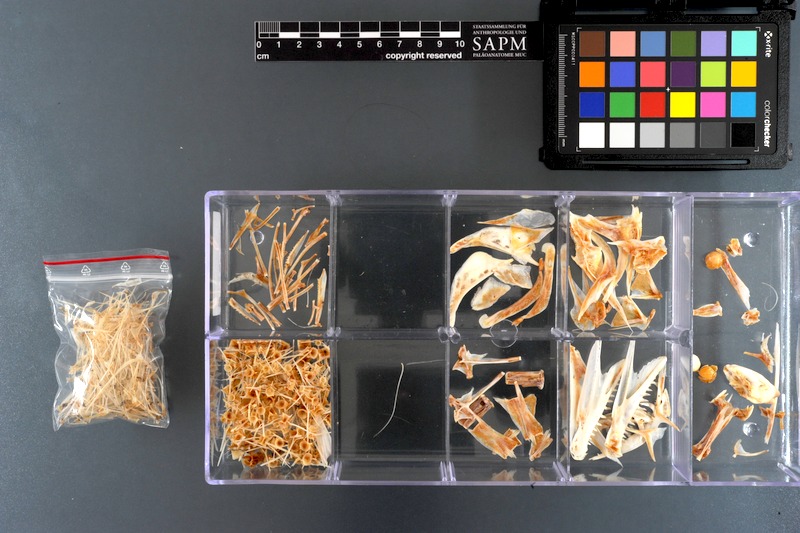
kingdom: Animalia
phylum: Chordata
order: Perciformes
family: Trichiuridae
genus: Eupleurogrammus
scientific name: Eupleurogrammus muticus
